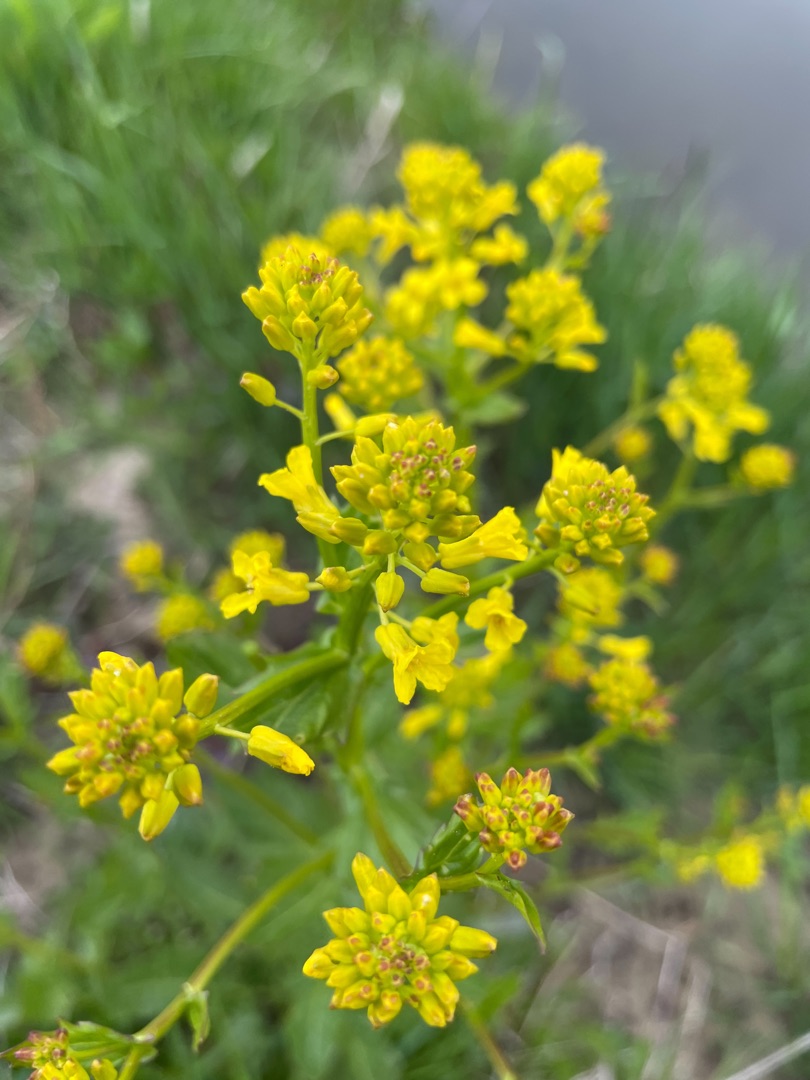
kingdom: Plantae
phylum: Tracheophyta
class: Magnoliopsida
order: Brassicales
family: Brassicaceae
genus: Barbarea
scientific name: Barbarea vulgaris
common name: Almindelig vinterkarse
